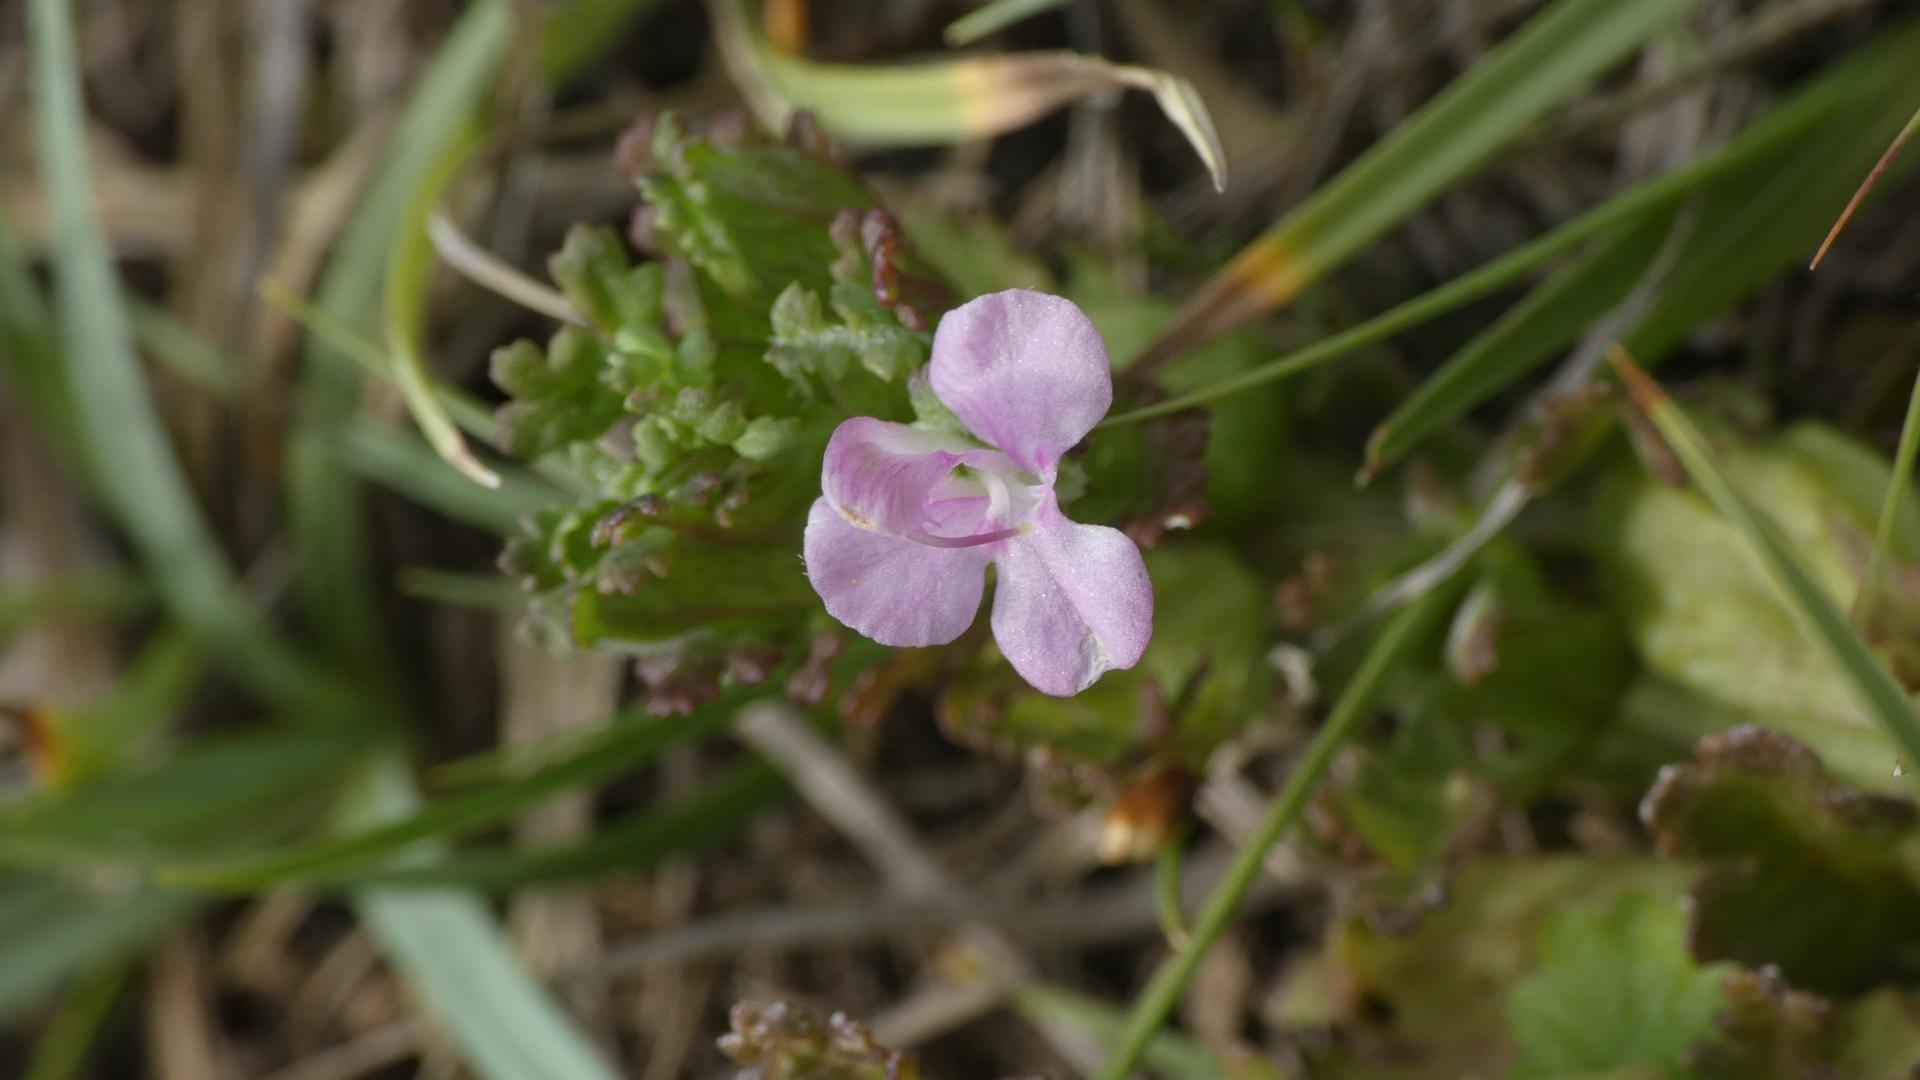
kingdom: Plantae
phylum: Tracheophyta
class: Magnoliopsida
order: Lamiales
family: Orobanchaceae
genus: Pedicularis
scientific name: Pedicularis sylvatica
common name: Mose-troldurt
